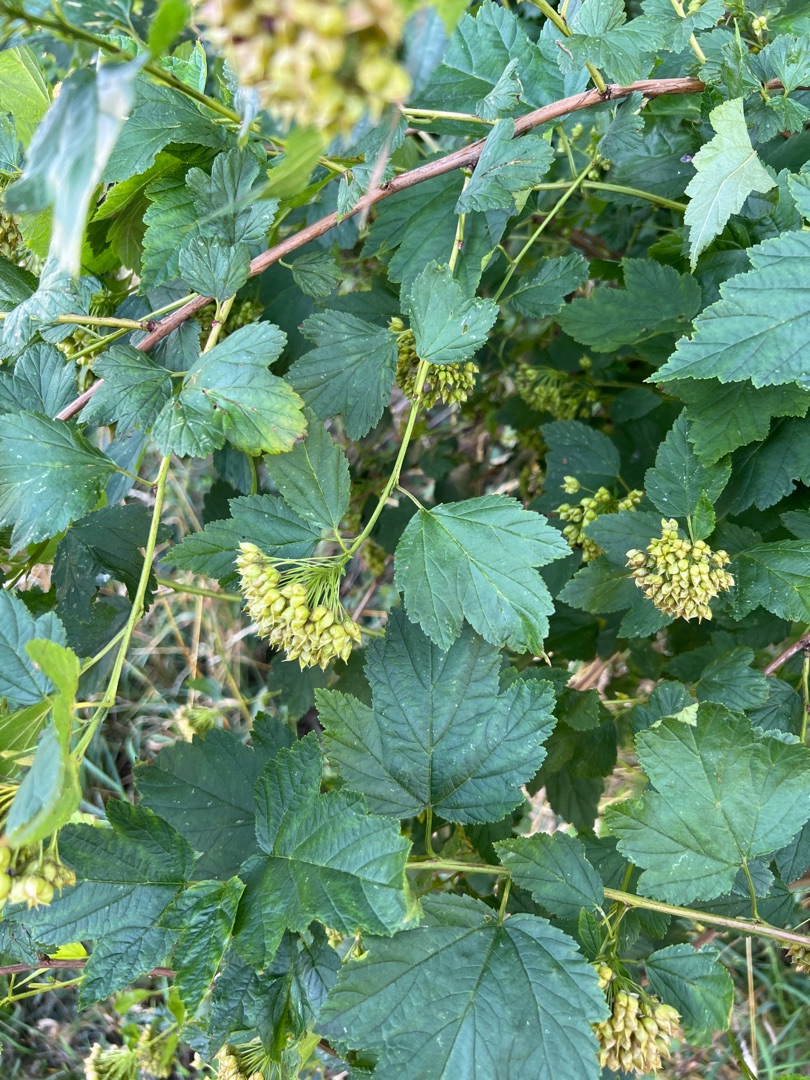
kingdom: Plantae
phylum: Tracheophyta
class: Magnoliopsida
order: Rosales
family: Rosaceae
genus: Physocarpus
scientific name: Physocarpus opulifolius
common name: Almindelig blærespiræa
